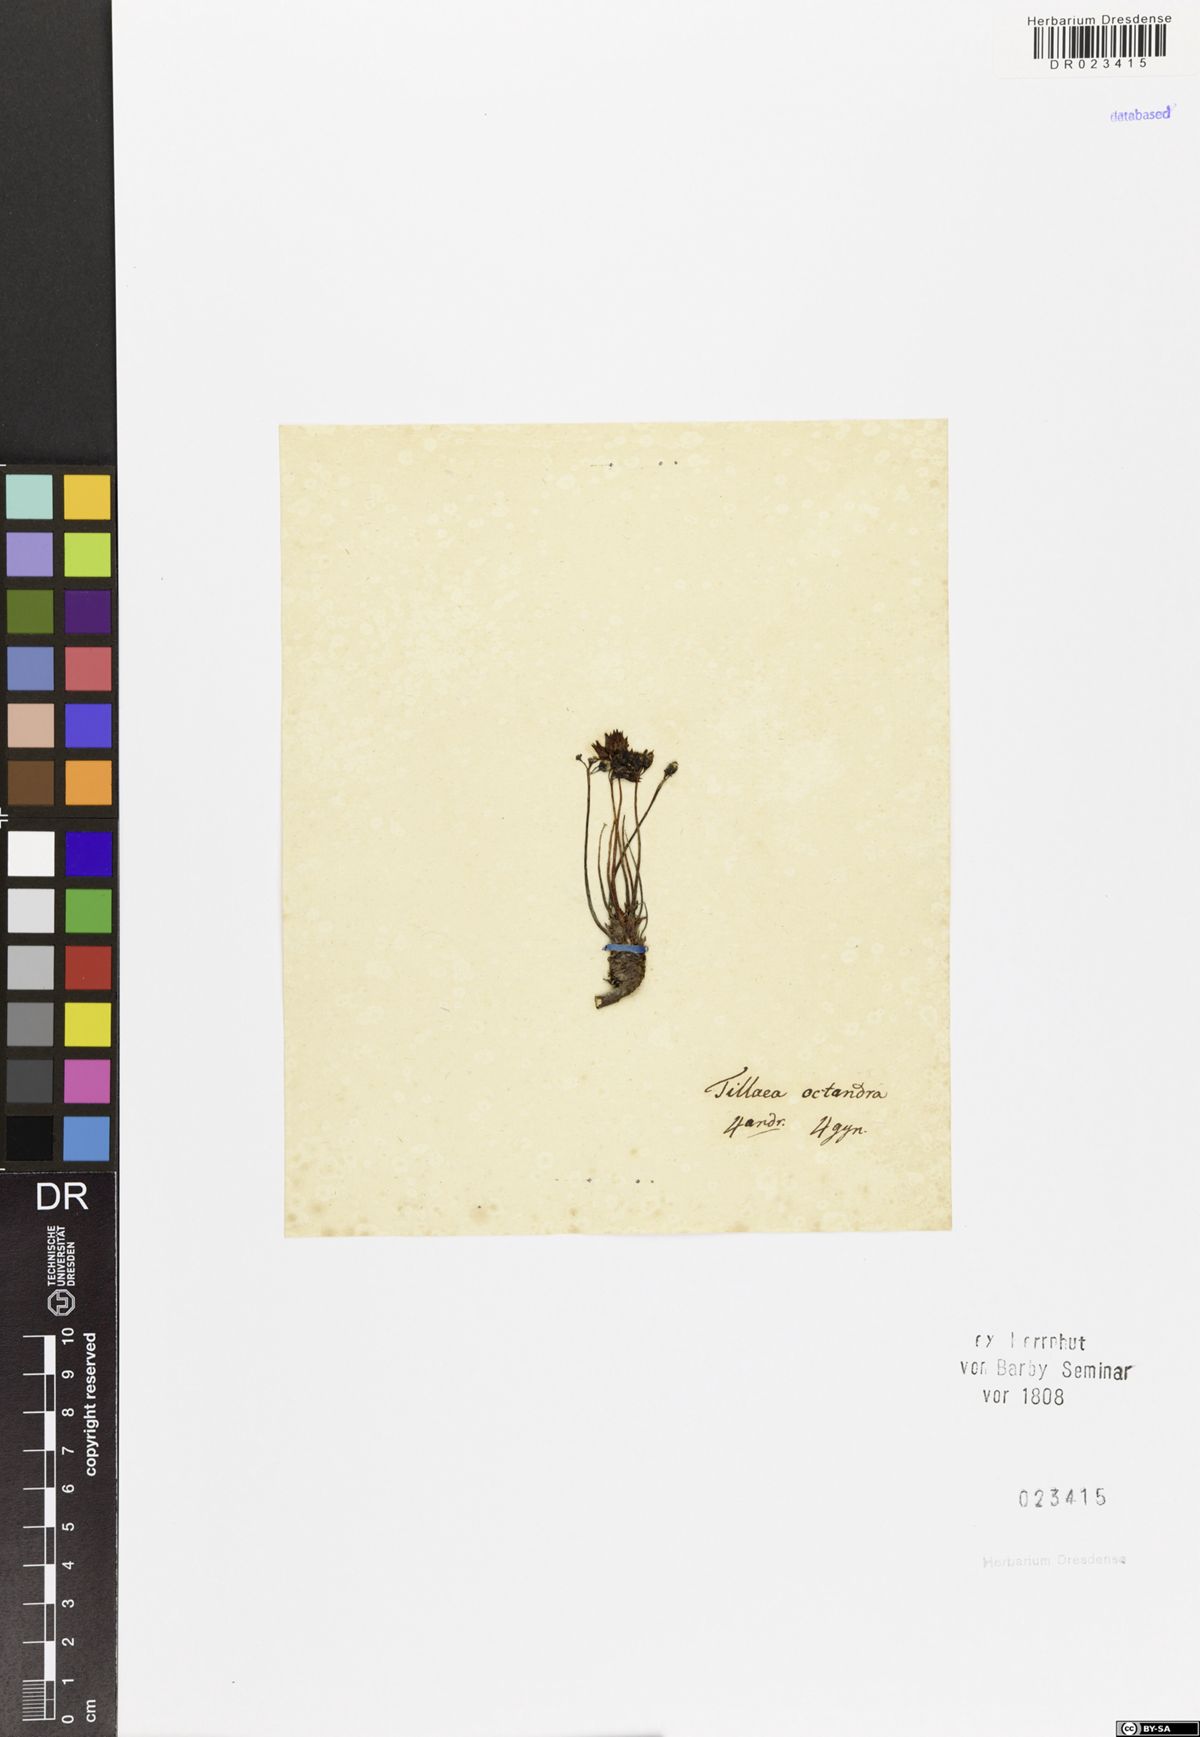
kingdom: Plantae
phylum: Tracheophyta
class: Magnoliopsida
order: Saxifragales
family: Crassulaceae
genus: Crassula
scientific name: Crassula
